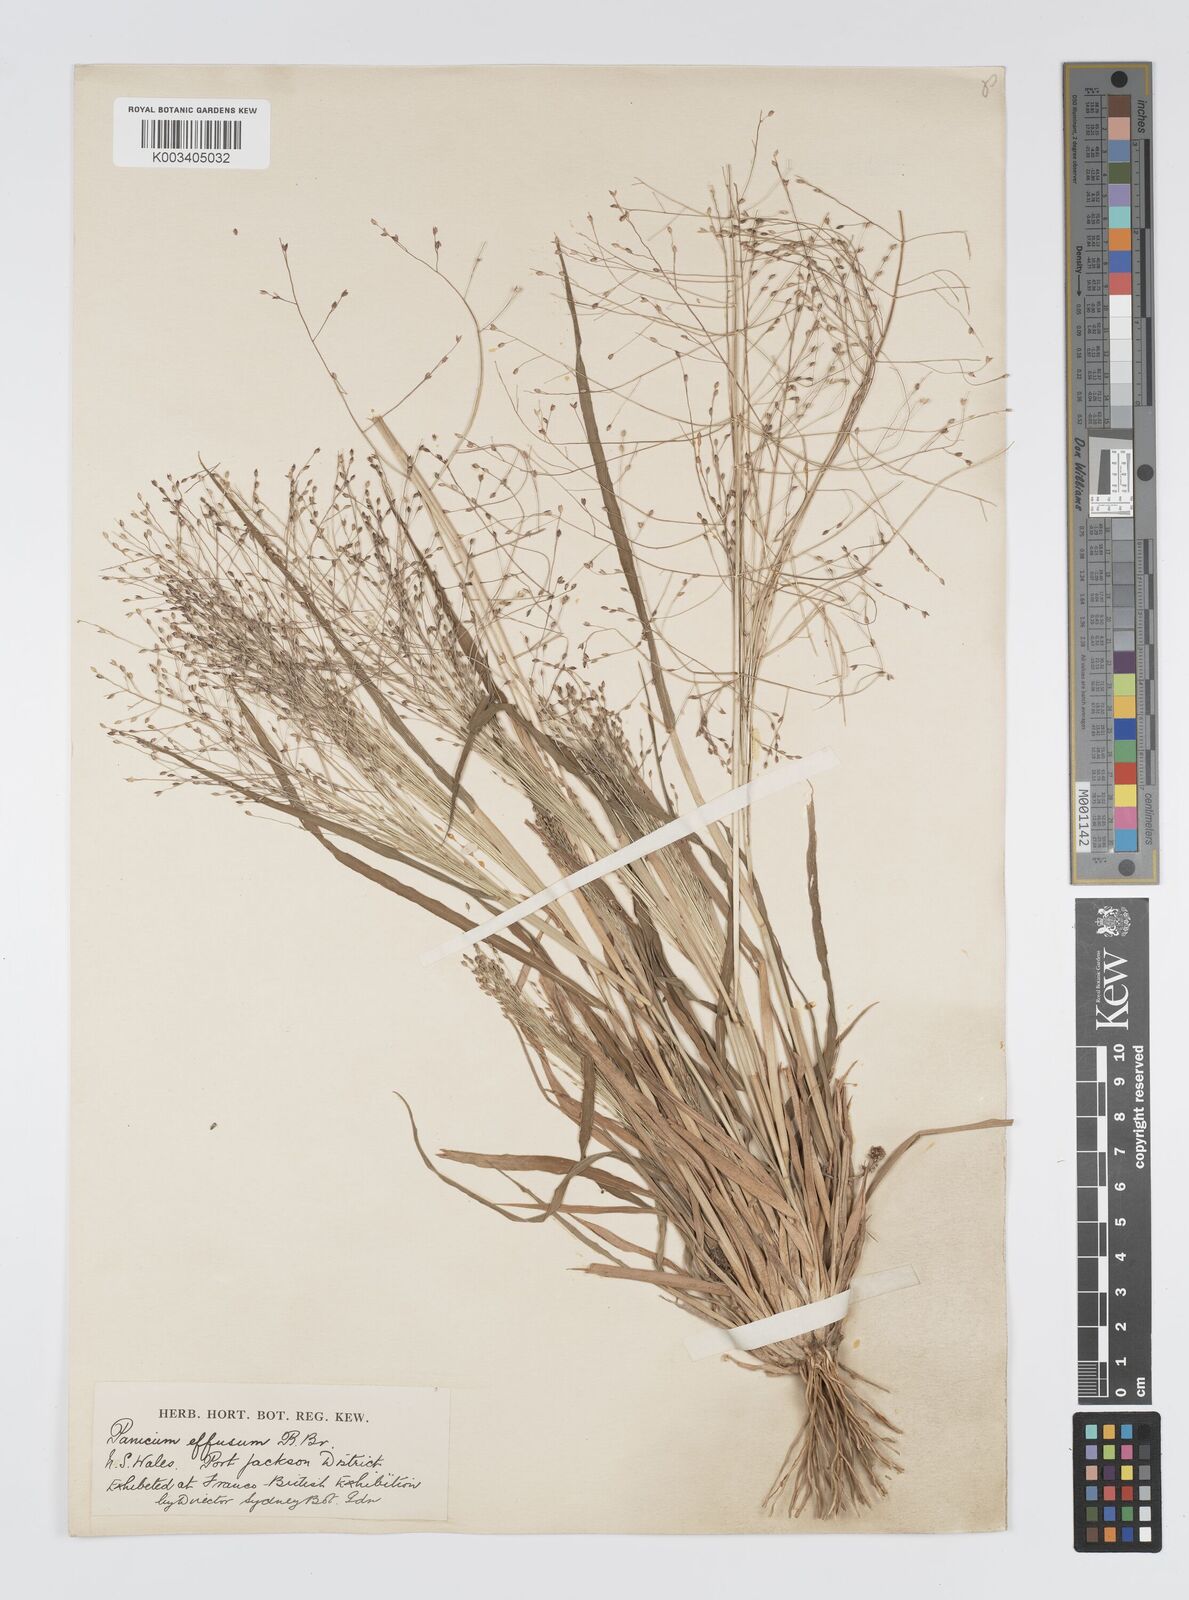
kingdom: Plantae
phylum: Tracheophyta
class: Liliopsida
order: Poales
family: Poaceae
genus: Panicum
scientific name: Panicum effusum
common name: Hairy panic grass
